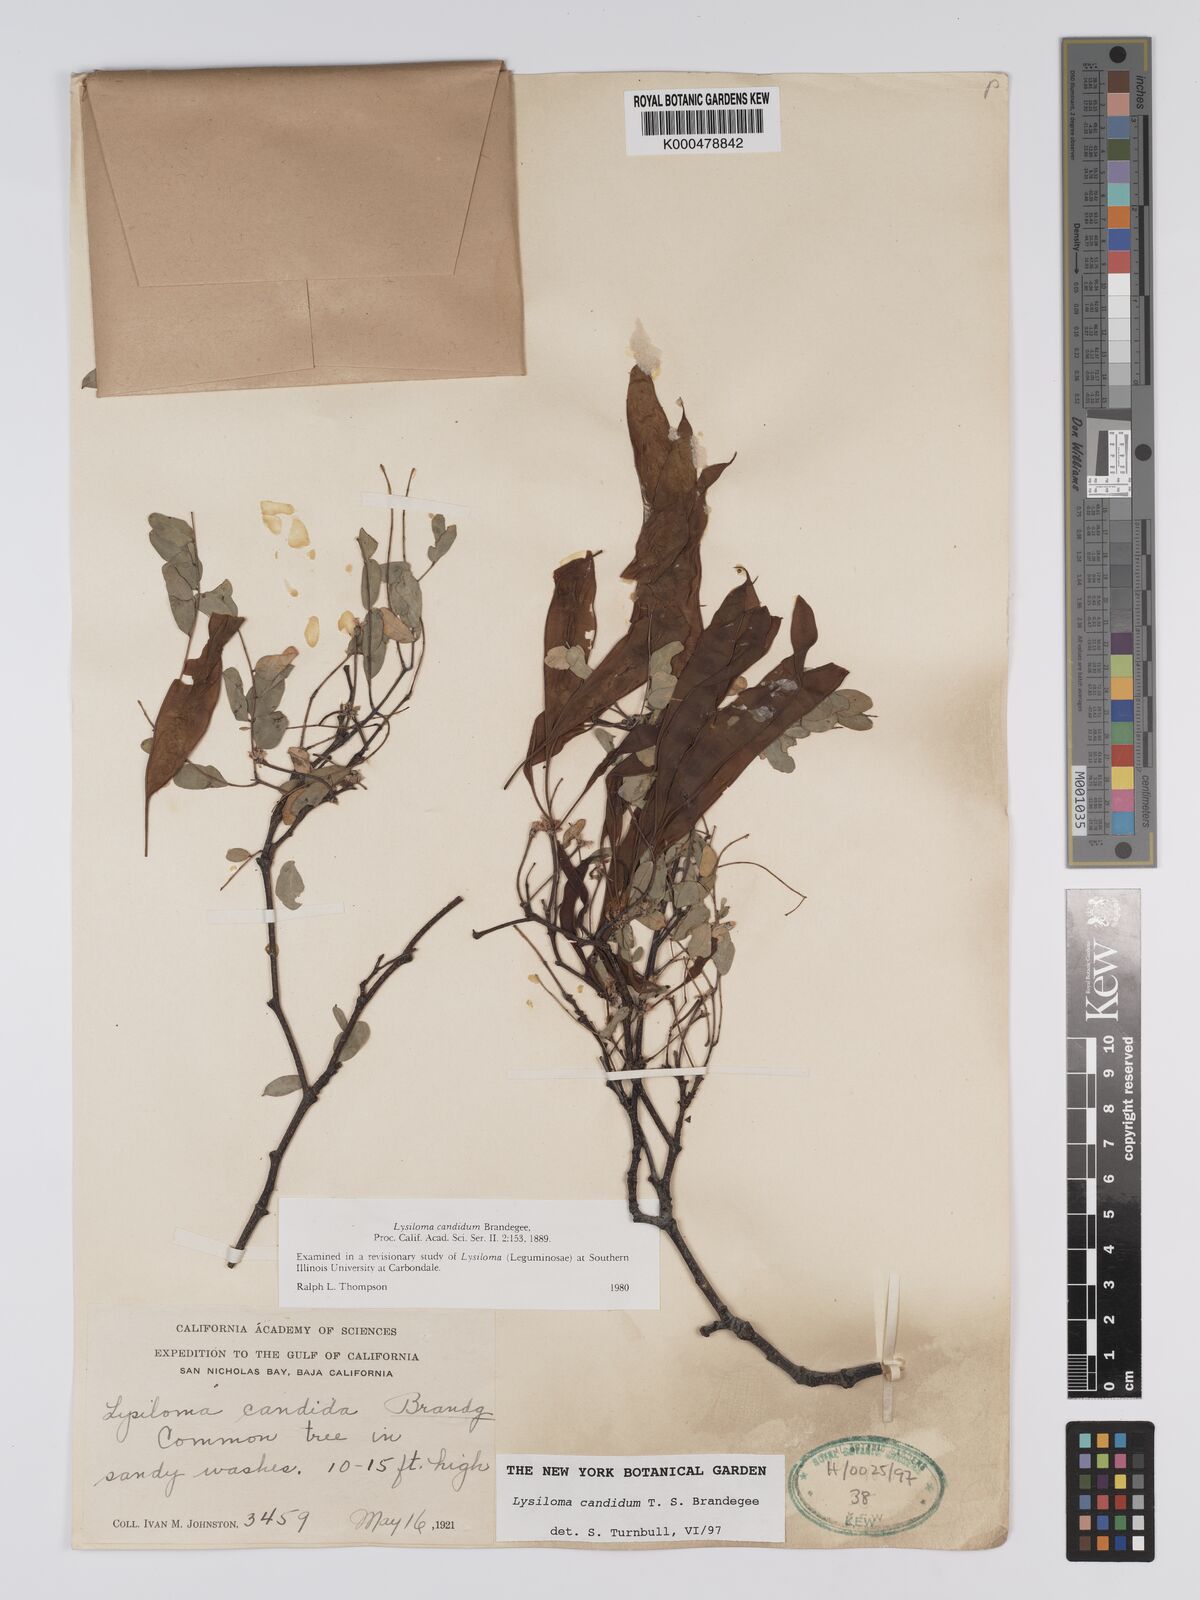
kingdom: Plantae
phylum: Tracheophyta
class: Magnoliopsida
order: Fabales
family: Fabaceae
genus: Lysiloma
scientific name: Lysiloma candidum
